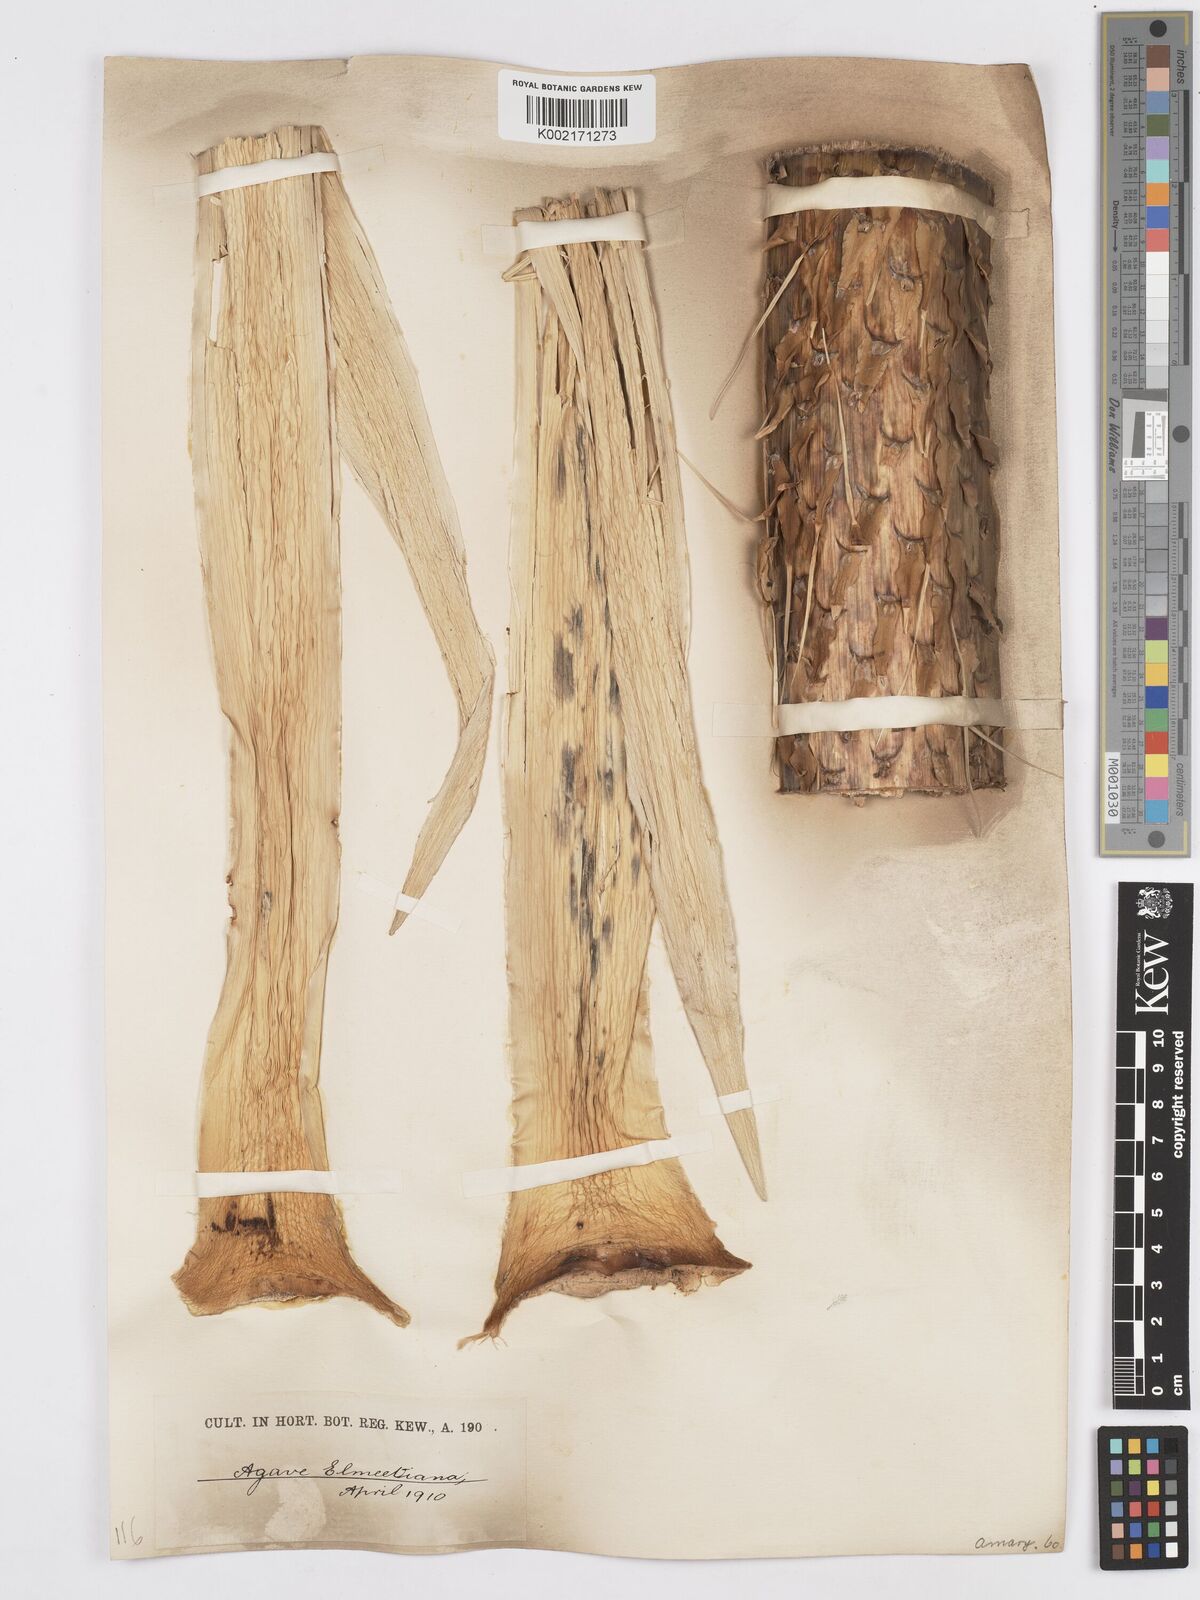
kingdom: Plantae
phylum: Tracheophyta
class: Liliopsida
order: Asparagales
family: Asparagaceae
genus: Agave
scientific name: Agave ellemeetiana
